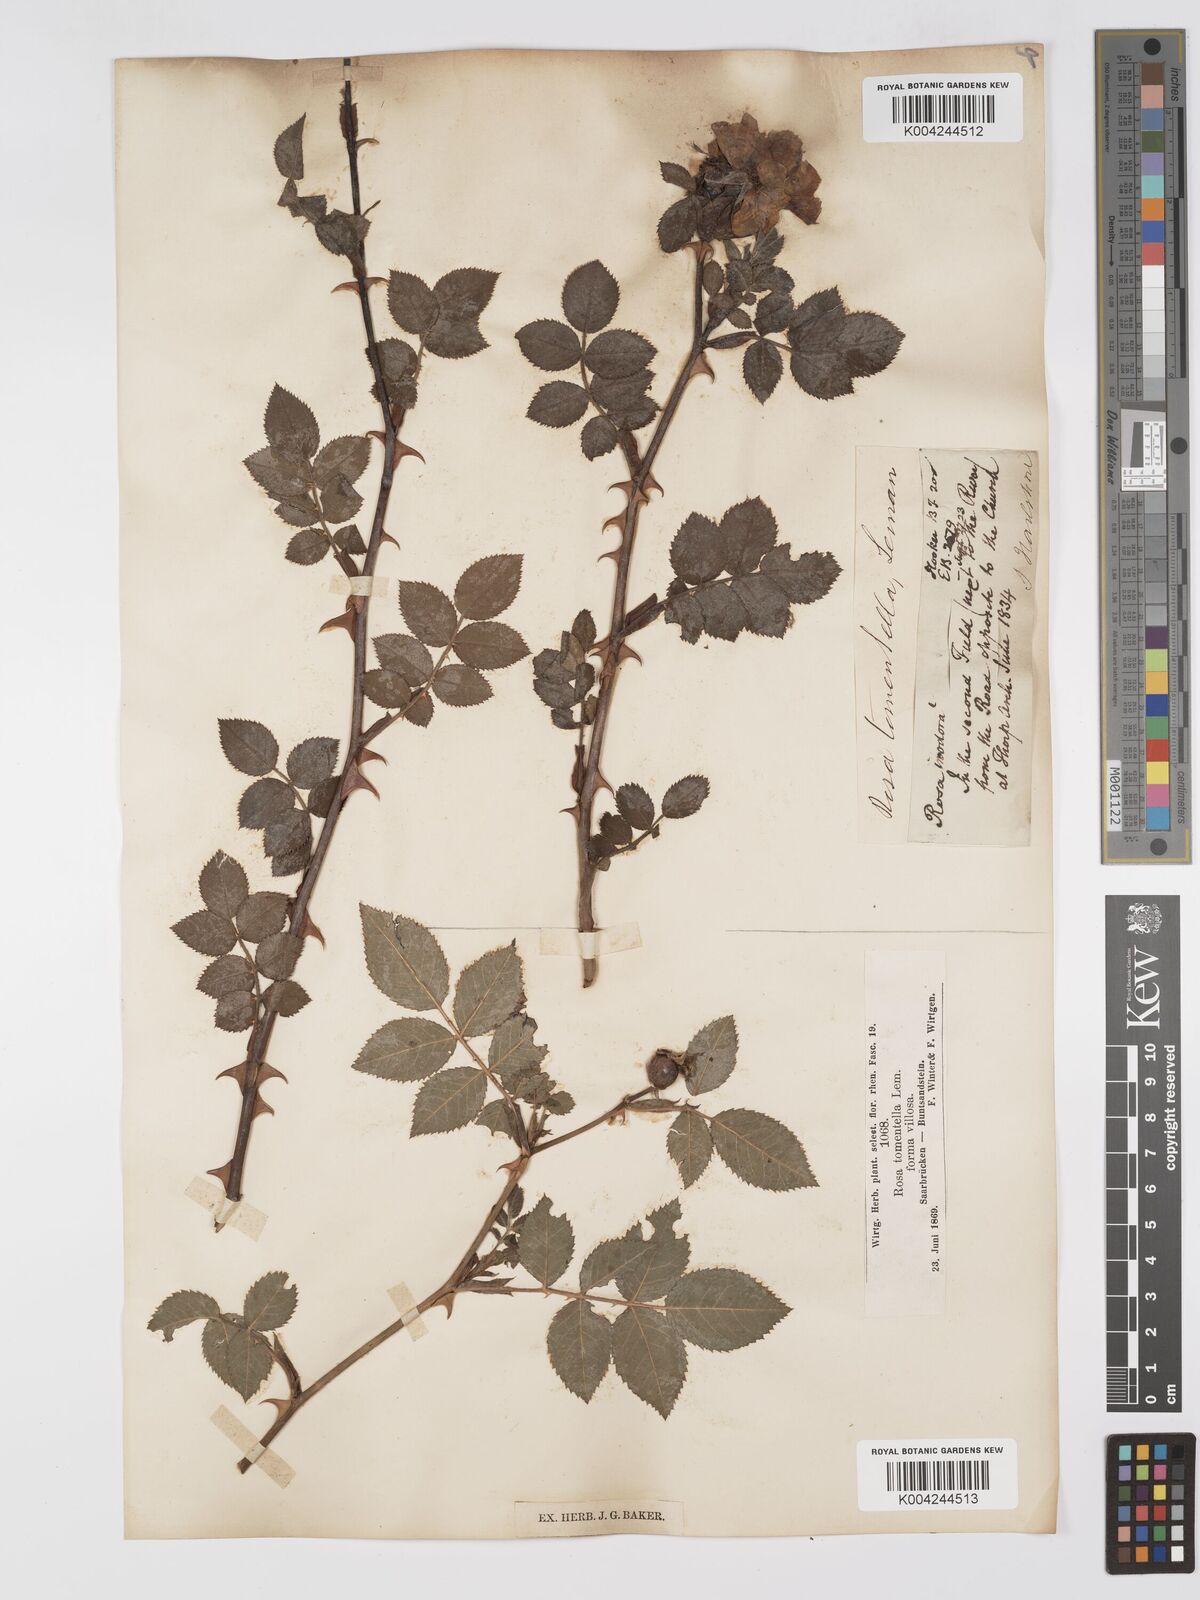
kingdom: Plantae
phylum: Tracheophyta
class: Magnoliopsida
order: Rosales
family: Rosaceae
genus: Rosa
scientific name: Rosa obtusifolia
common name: Round-leaved dog-rose
